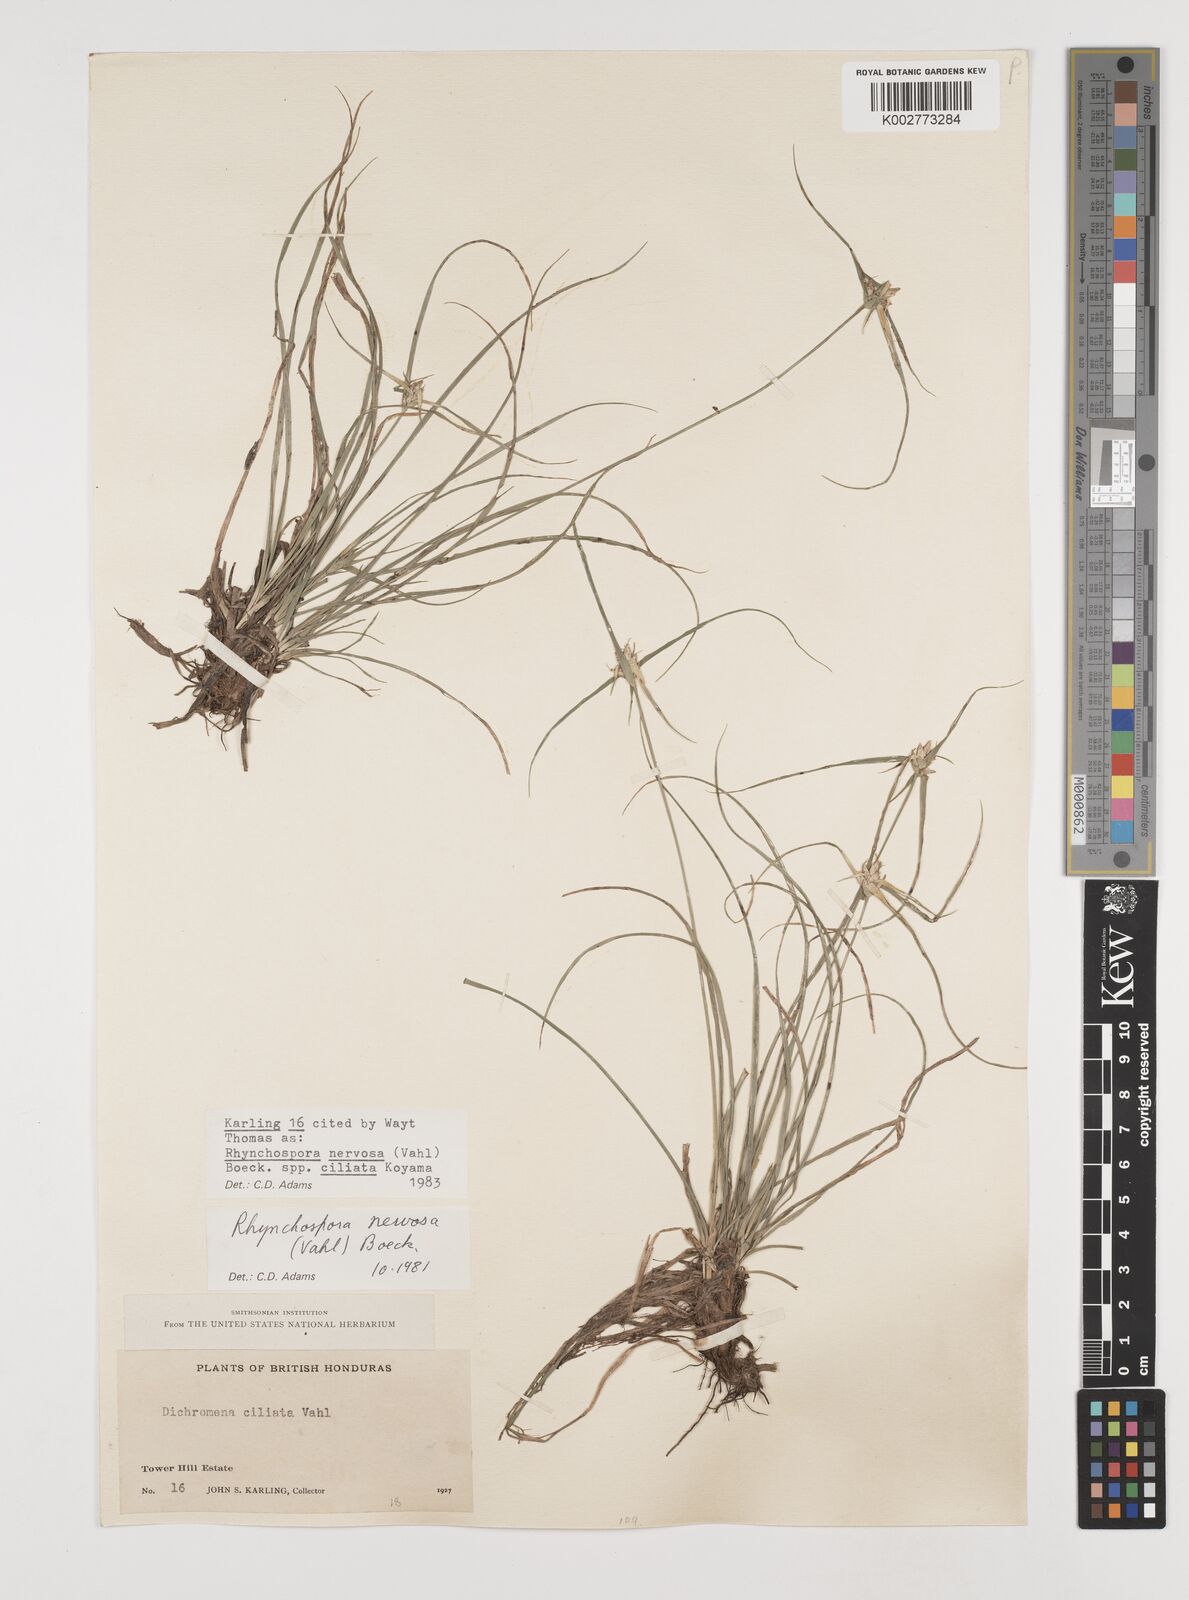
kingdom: Plantae
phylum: Tracheophyta
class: Liliopsida
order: Poales
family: Cyperaceae
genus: Rhynchospora
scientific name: Rhynchospora pura
